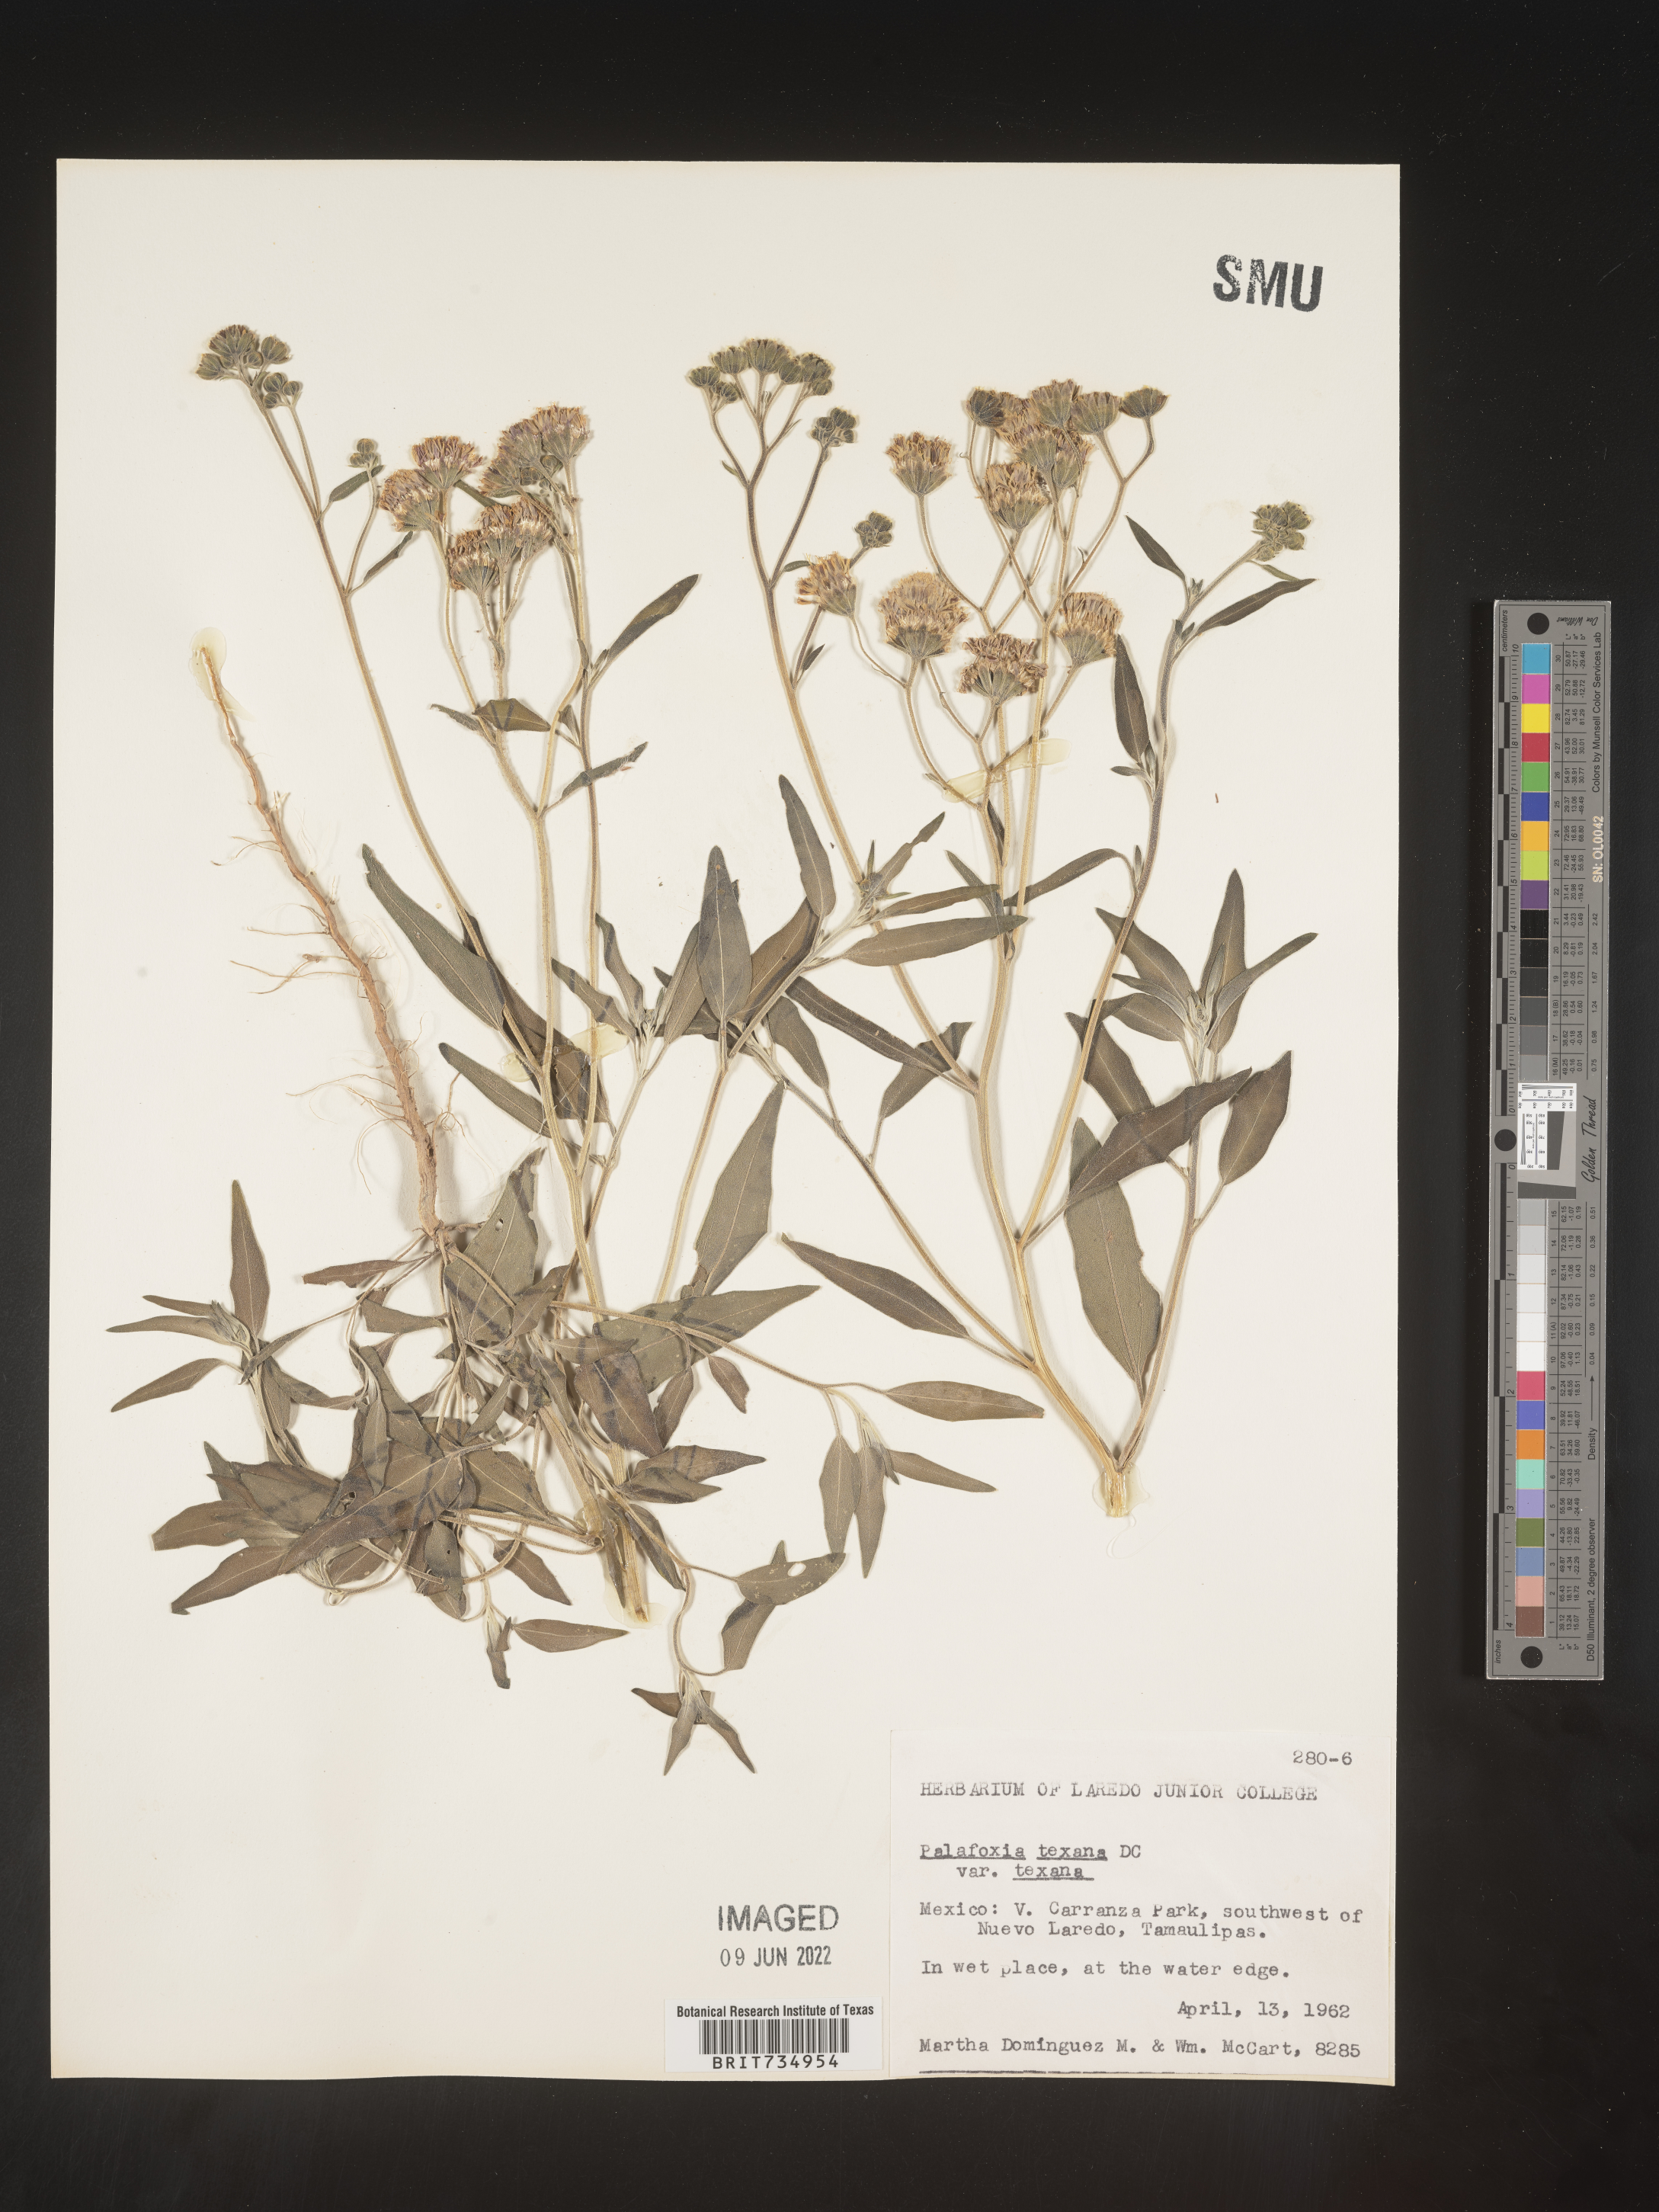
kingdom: Plantae
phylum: Tracheophyta
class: Magnoliopsida
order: Asterales
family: Asteraceae
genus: Palafoxia
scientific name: Palafoxia texana
